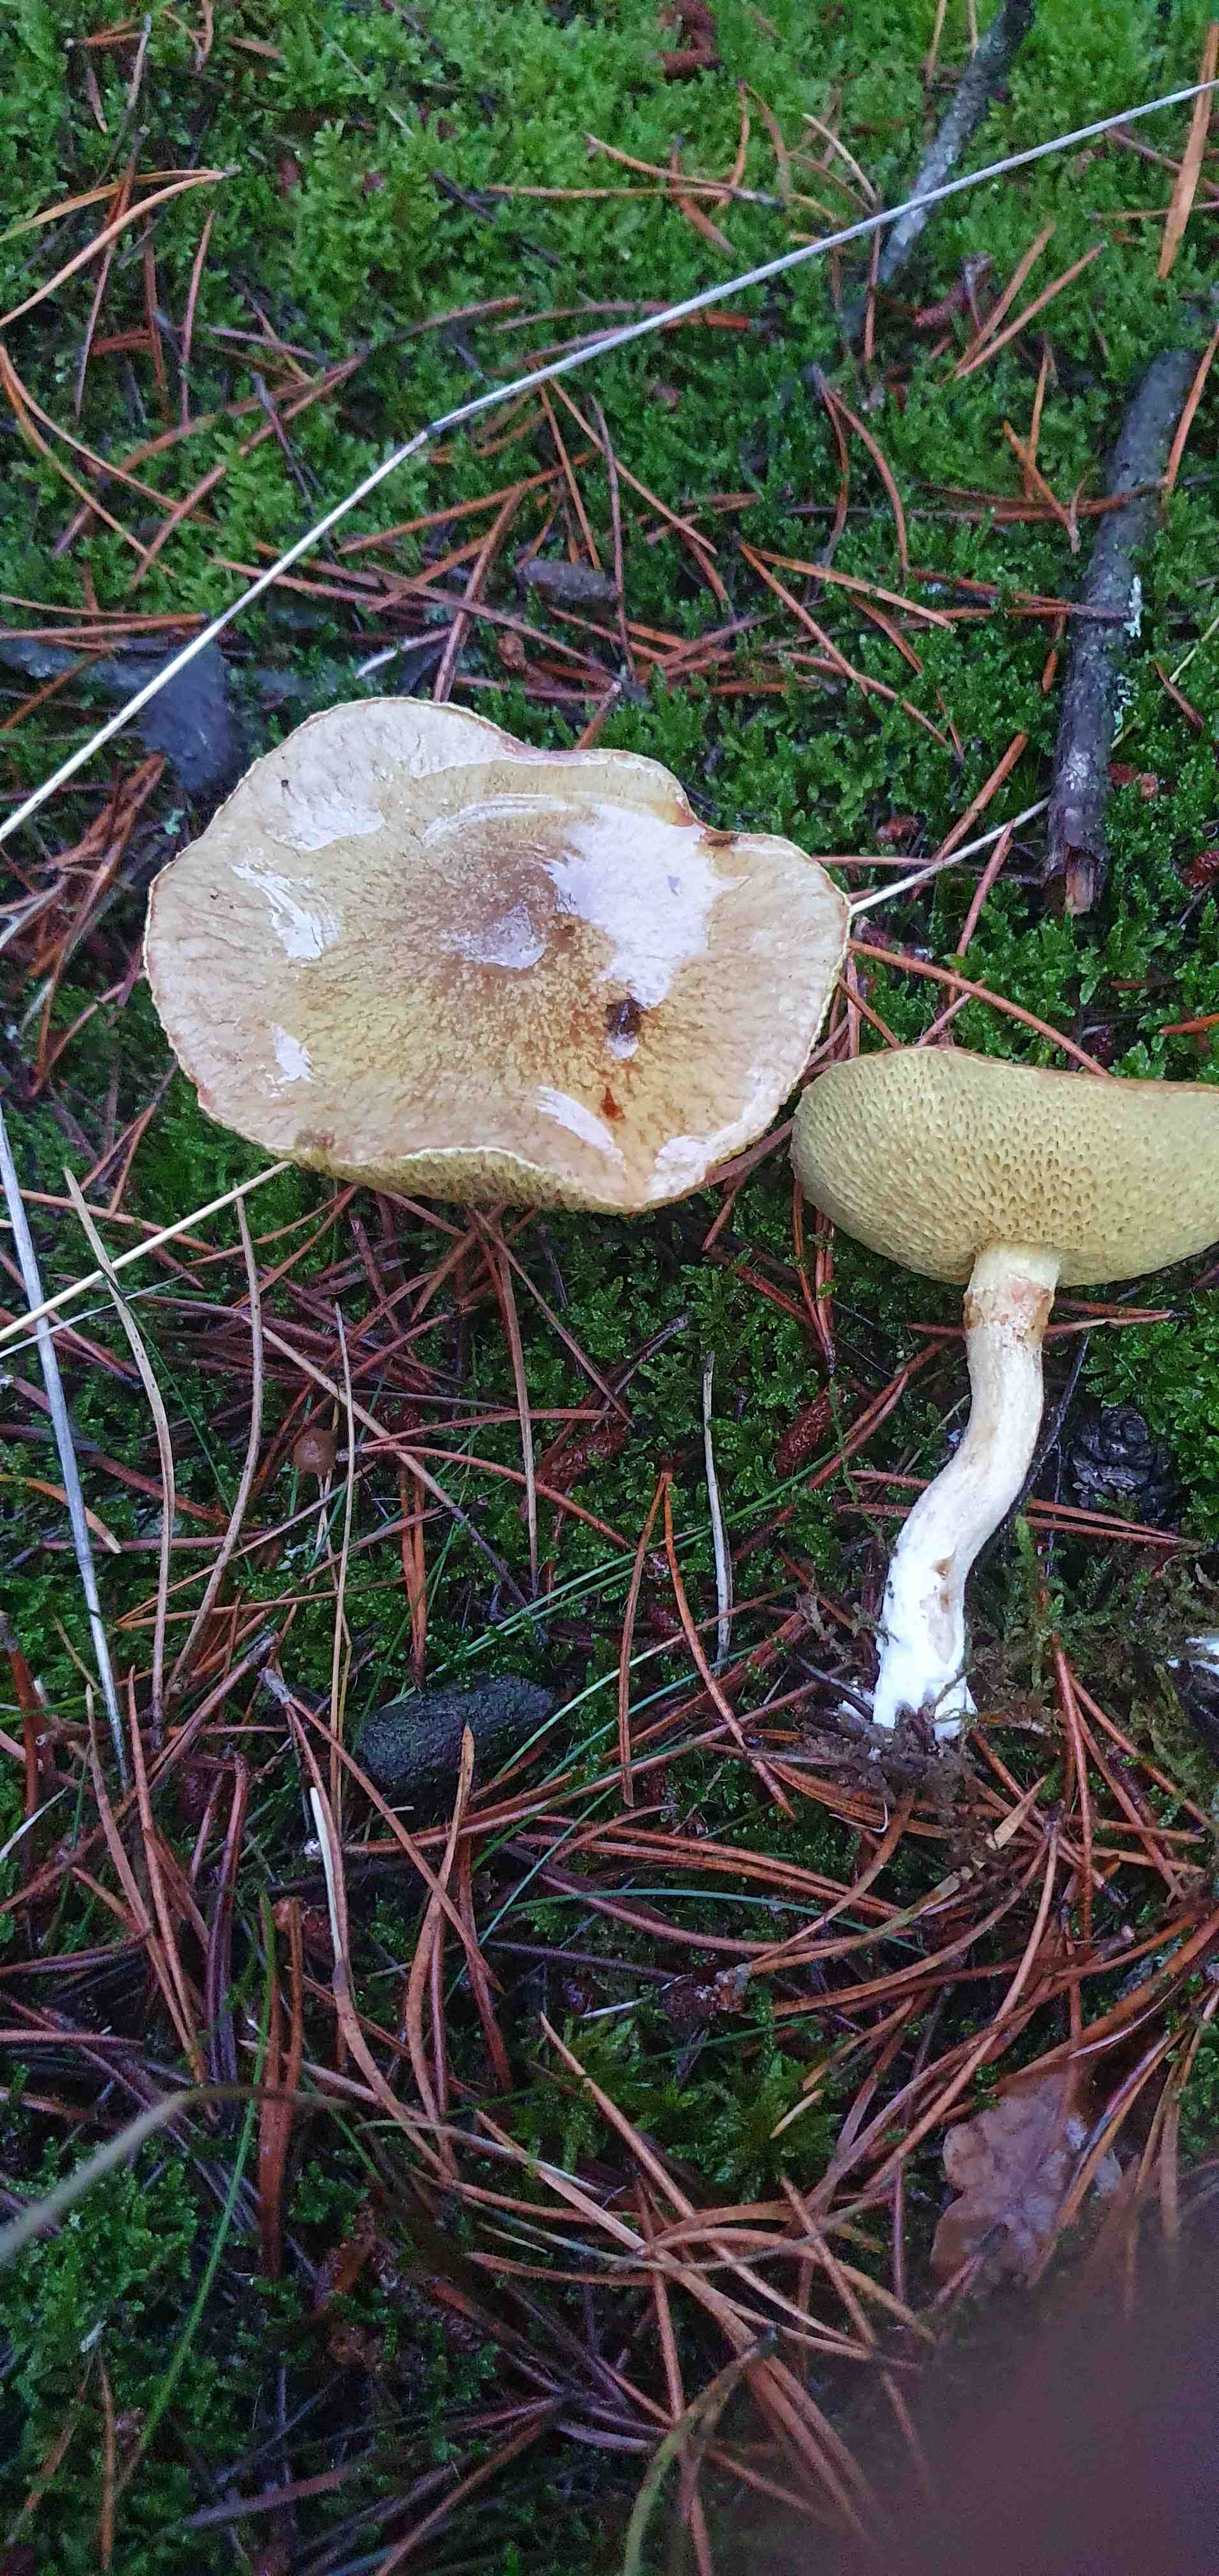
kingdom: Fungi
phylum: Basidiomycota
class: Agaricomycetes
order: Boletales
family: Suillaceae
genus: Suillus
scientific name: Suillus flavidus
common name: mose-slimrørhat
